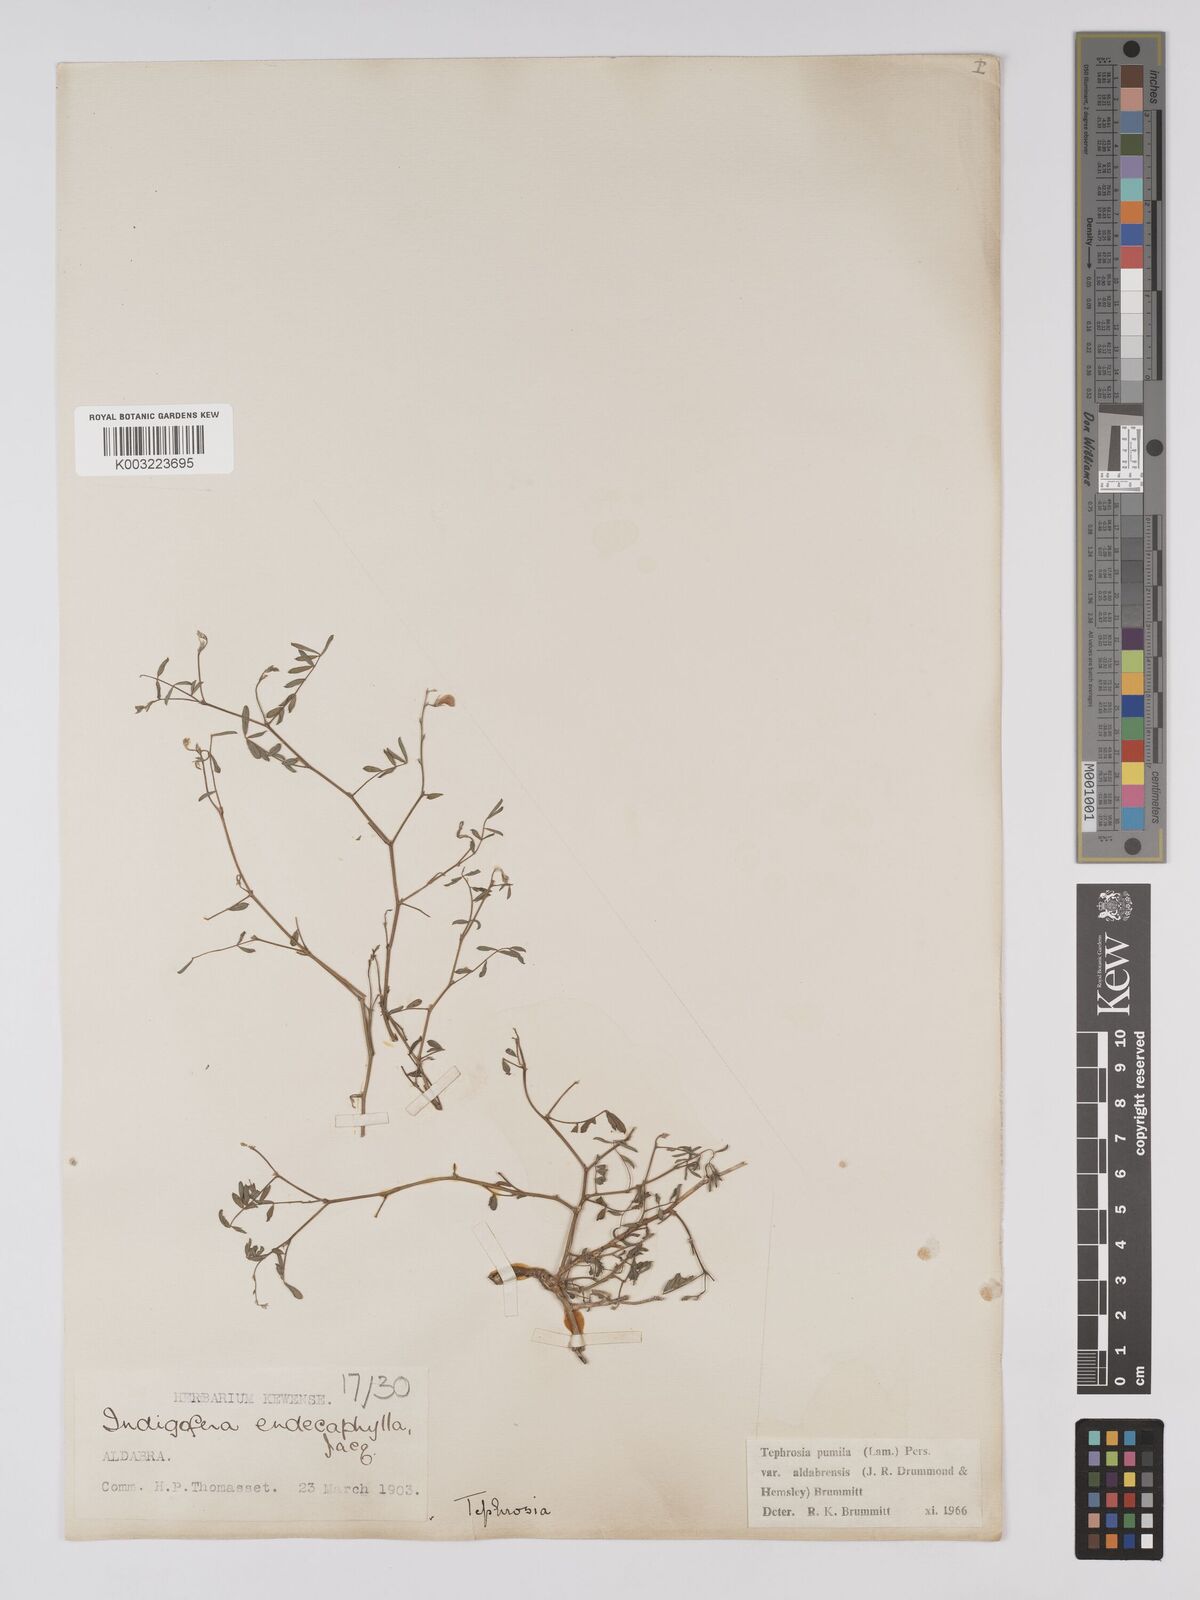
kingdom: Plantae
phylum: Tracheophyta
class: Magnoliopsida
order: Fabales
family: Fabaceae
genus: Tephrosia
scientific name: Tephrosia pumila
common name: Indigo sauvage
